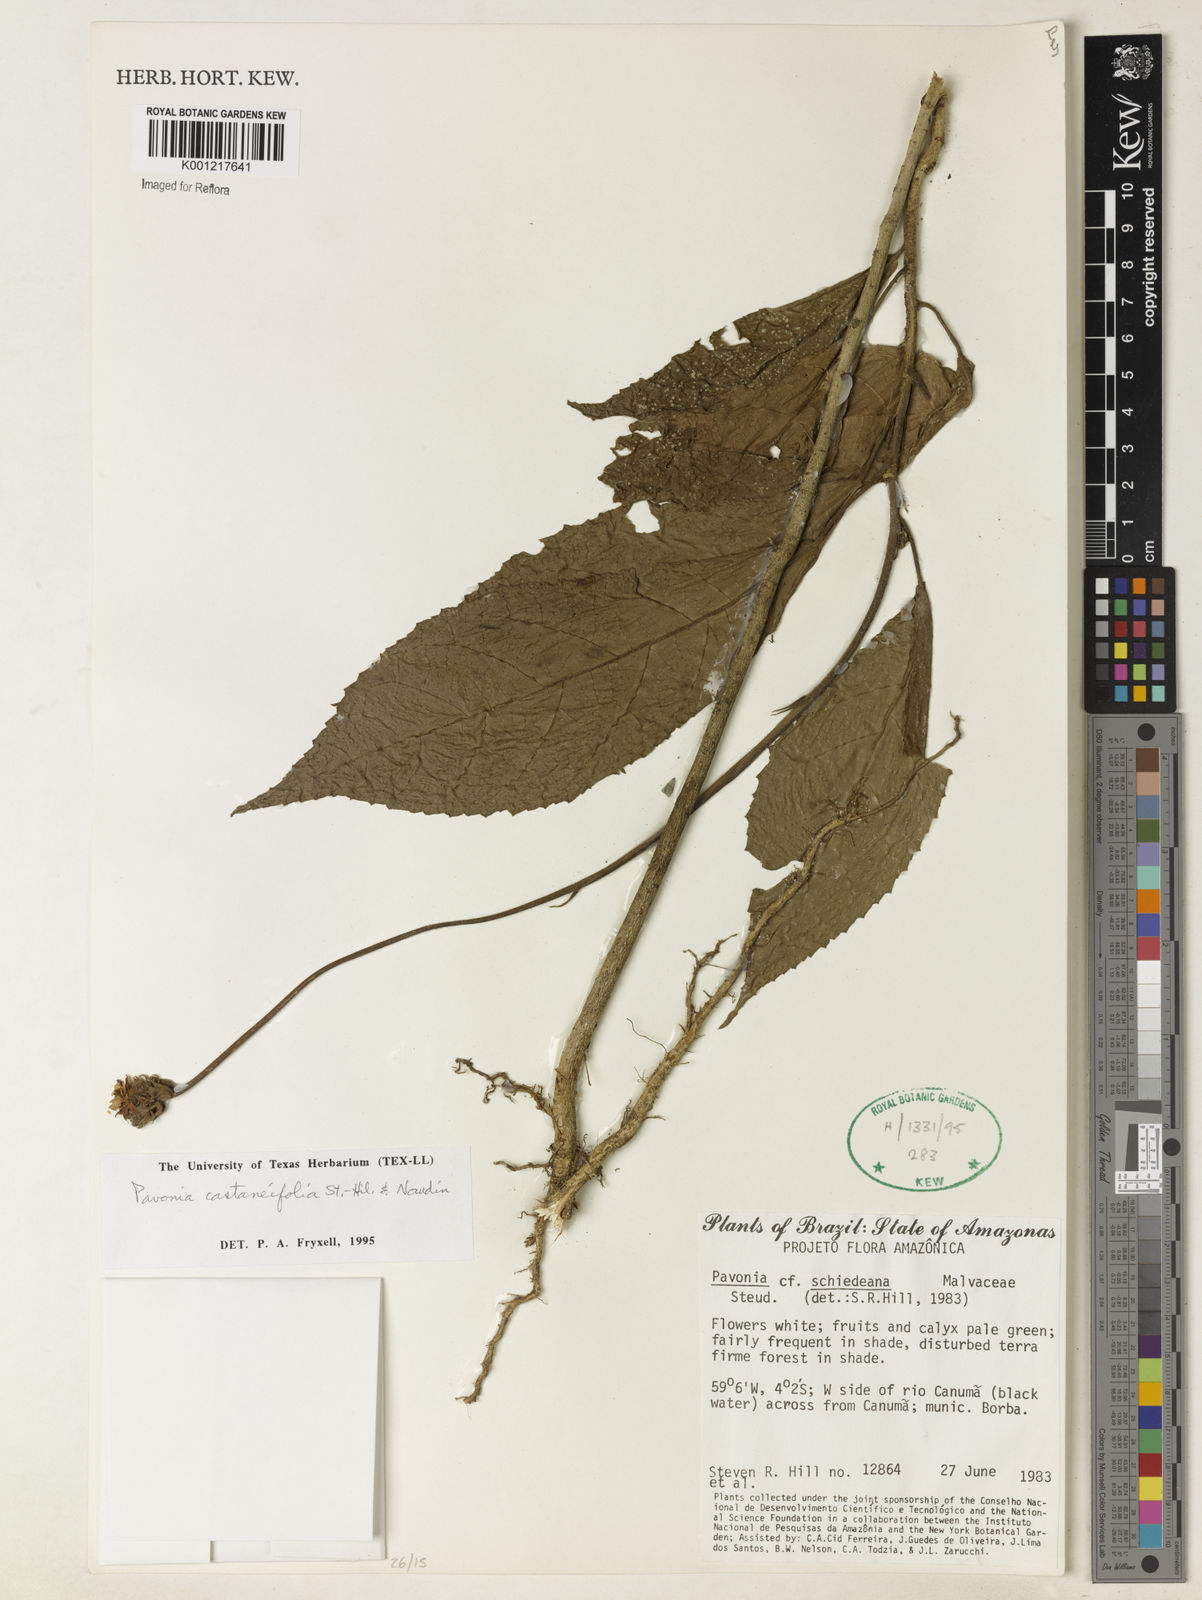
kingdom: Plantae
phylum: Tracheophyta
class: Magnoliopsida
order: Malvales
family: Malvaceae
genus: Pavonia
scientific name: Pavonia castaneifolia
